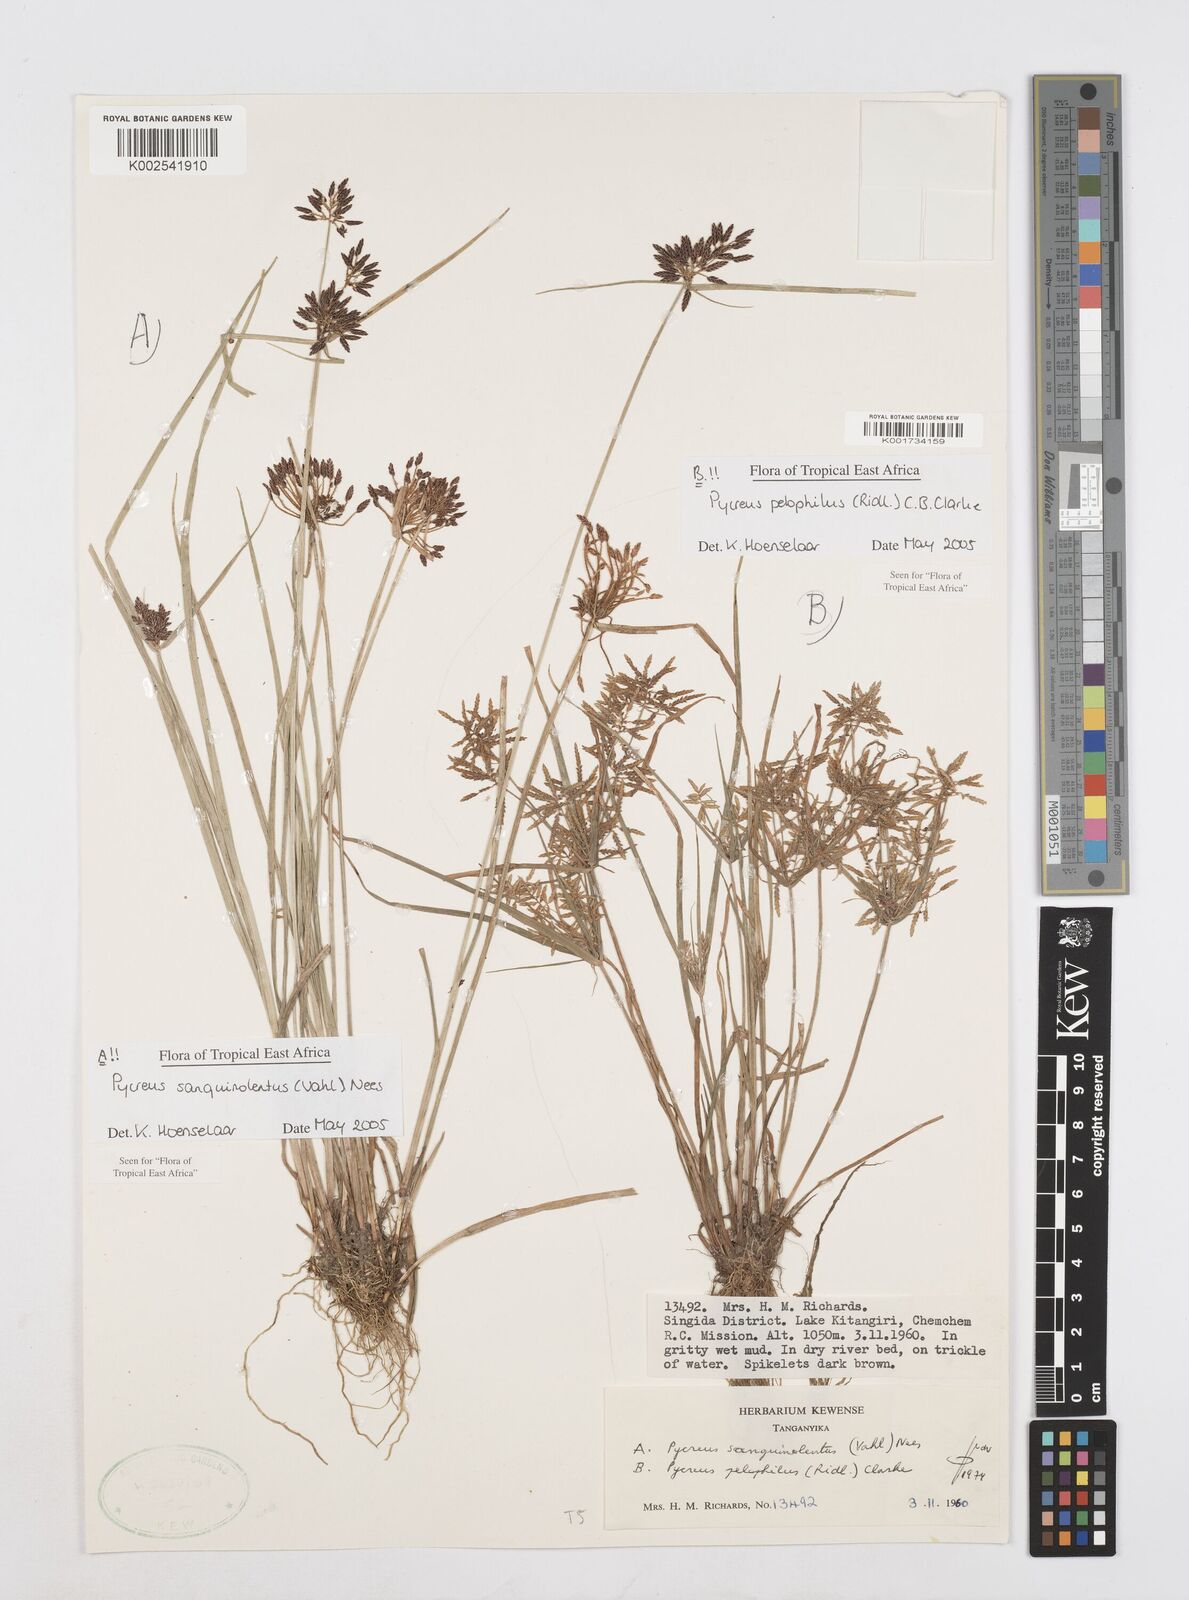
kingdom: Plantae
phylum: Tracheophyta
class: Liliopsida
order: Poales
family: Cyperaceae
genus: Cyperus
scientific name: Cyperus sanguinolentus
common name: Purpleglume flatsedge
